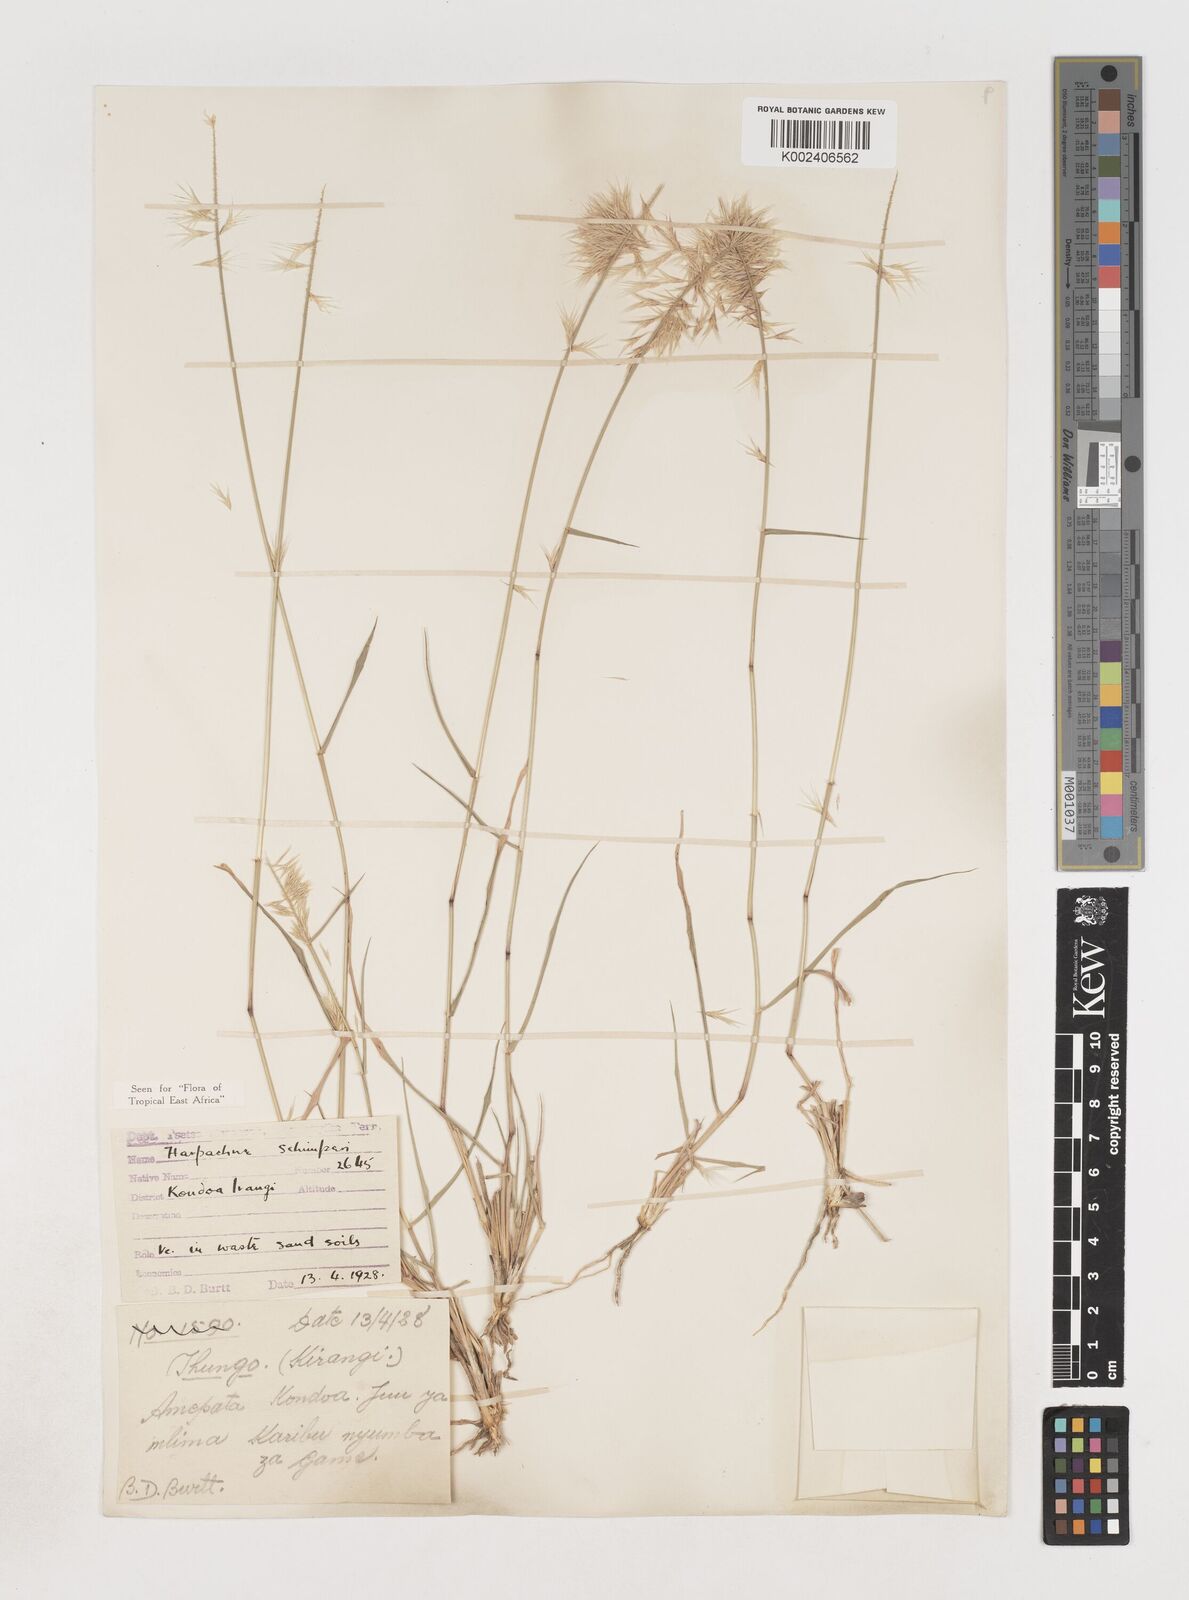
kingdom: Plantae
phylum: Tracheophyta
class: Liliopsida
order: Poales
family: Poaceae
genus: Harpachne
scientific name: Harpachne schimperi
